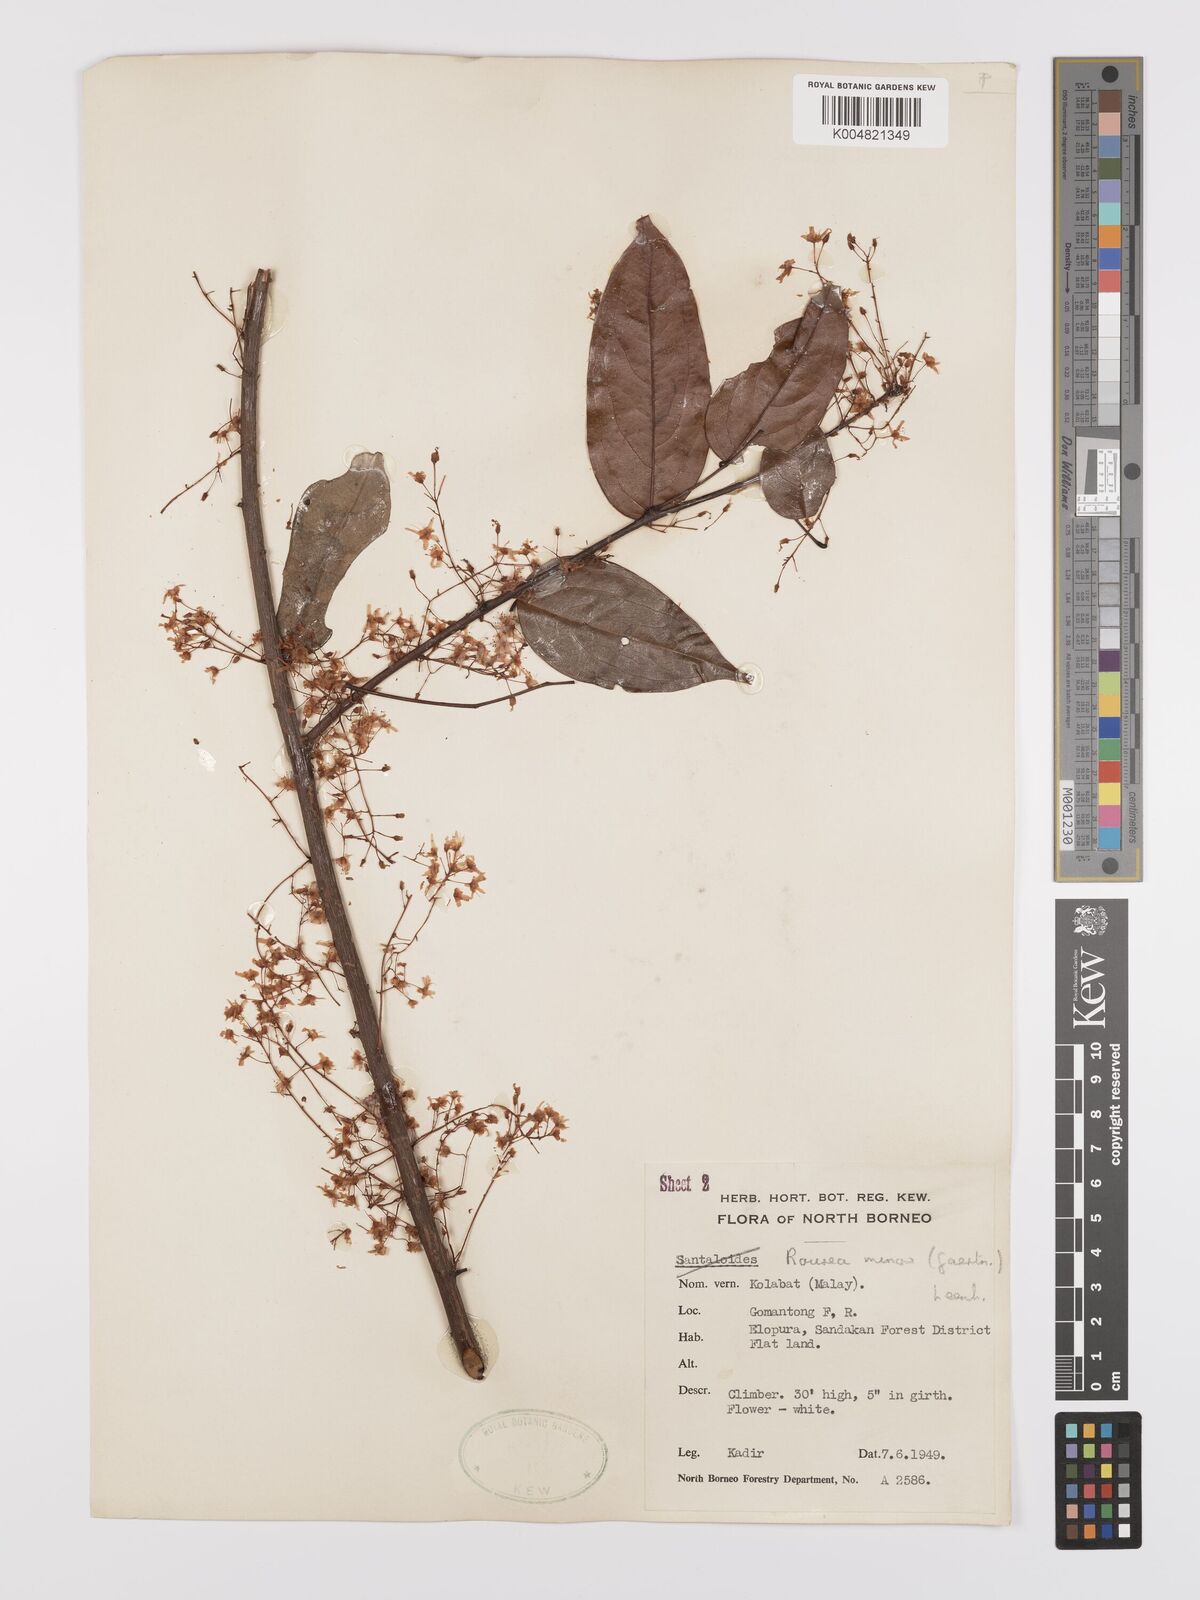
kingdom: Plantae
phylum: Tracheophyta
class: Magnoliopsida
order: Oxalidales
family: Connaraceae
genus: Rourea
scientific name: Rourea minor
